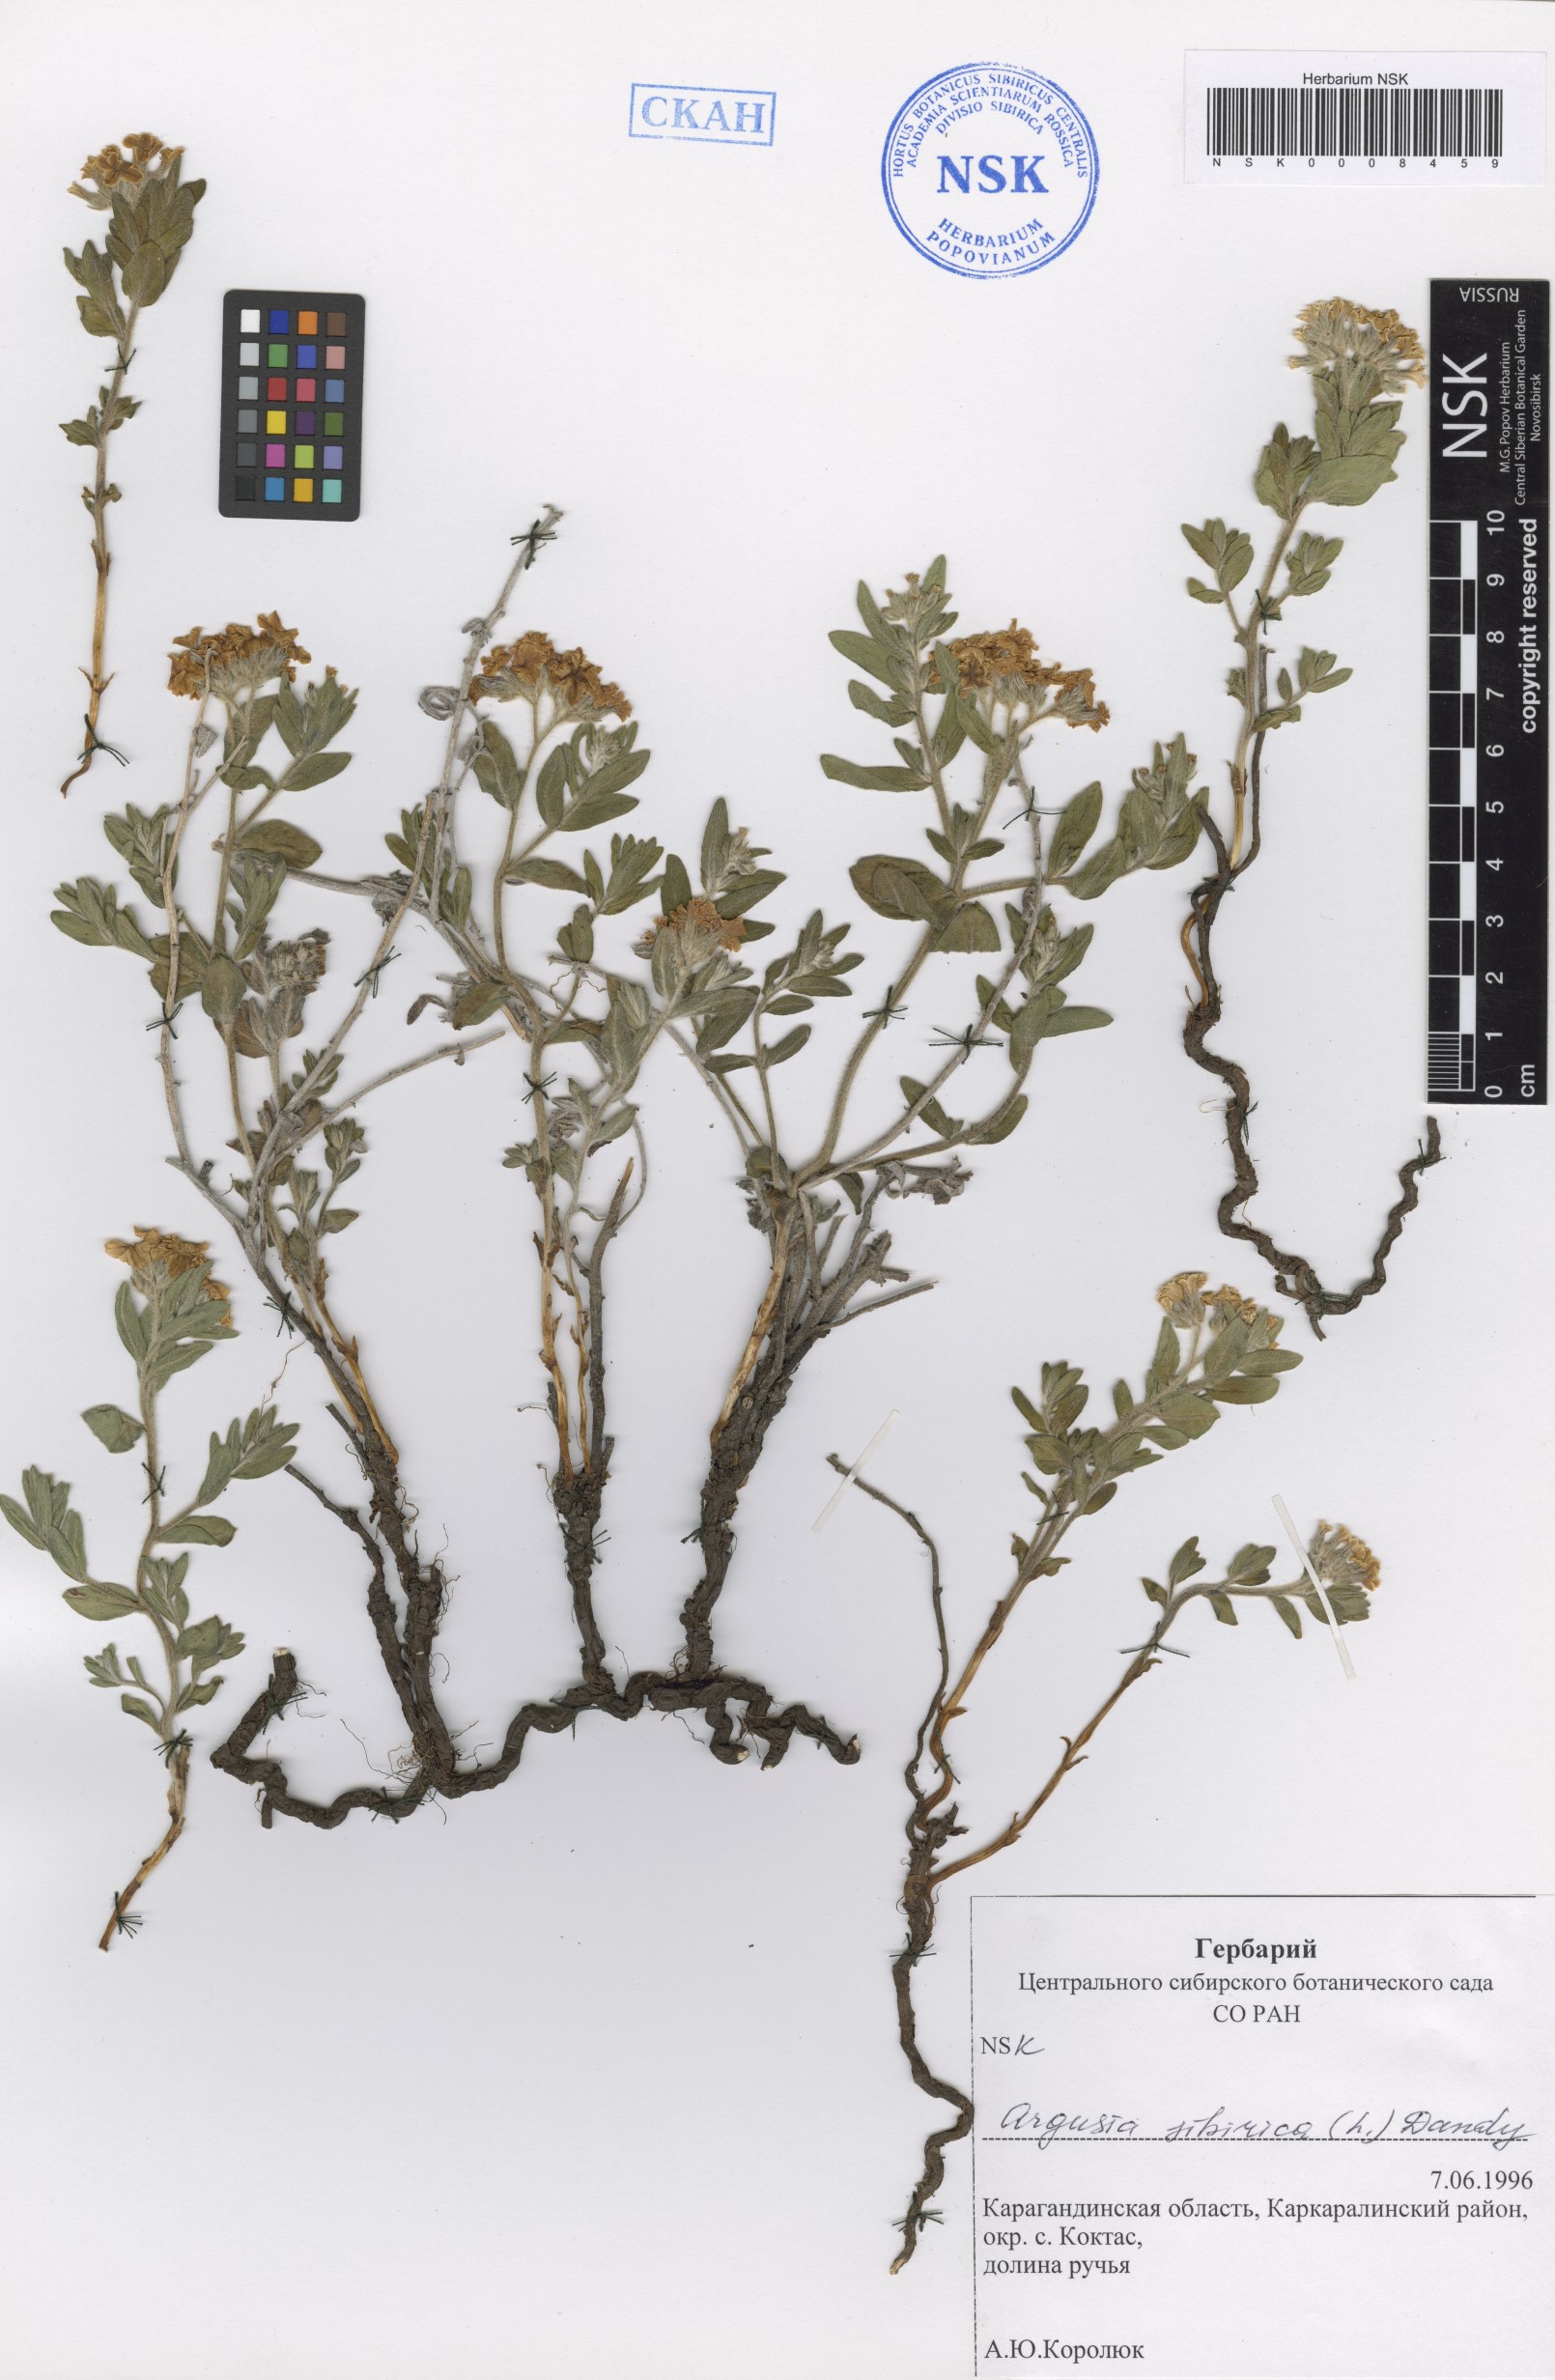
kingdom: Plantae
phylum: Tracheophyta
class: Magnoliopsida
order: Boraginales
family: Heliotropiaceae
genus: Tournefortia
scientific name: Tournefortia sibirica
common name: Siberian sea rosemary
